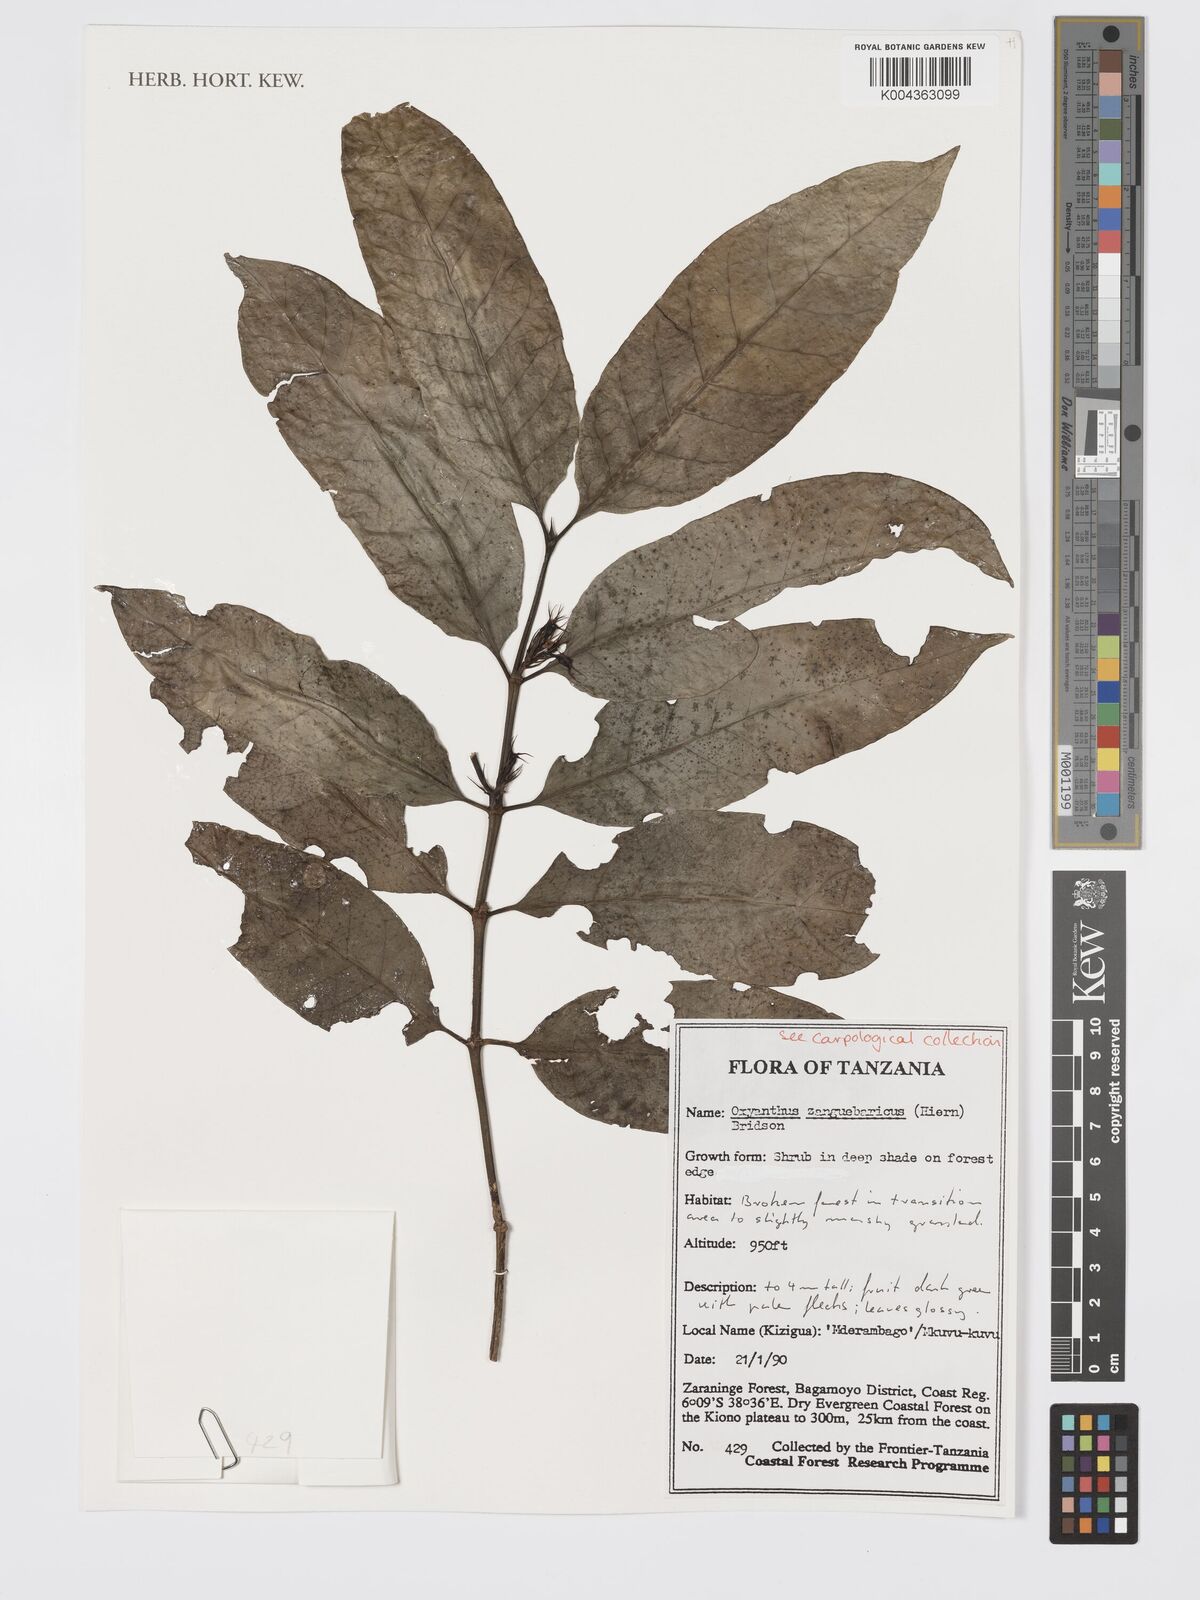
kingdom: Plantae
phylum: Tracheophyta
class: Magnoliopsida
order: Gentianales
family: Rubiaceae
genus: Oxyanthus
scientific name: Oxyanthus zanguebaricus
